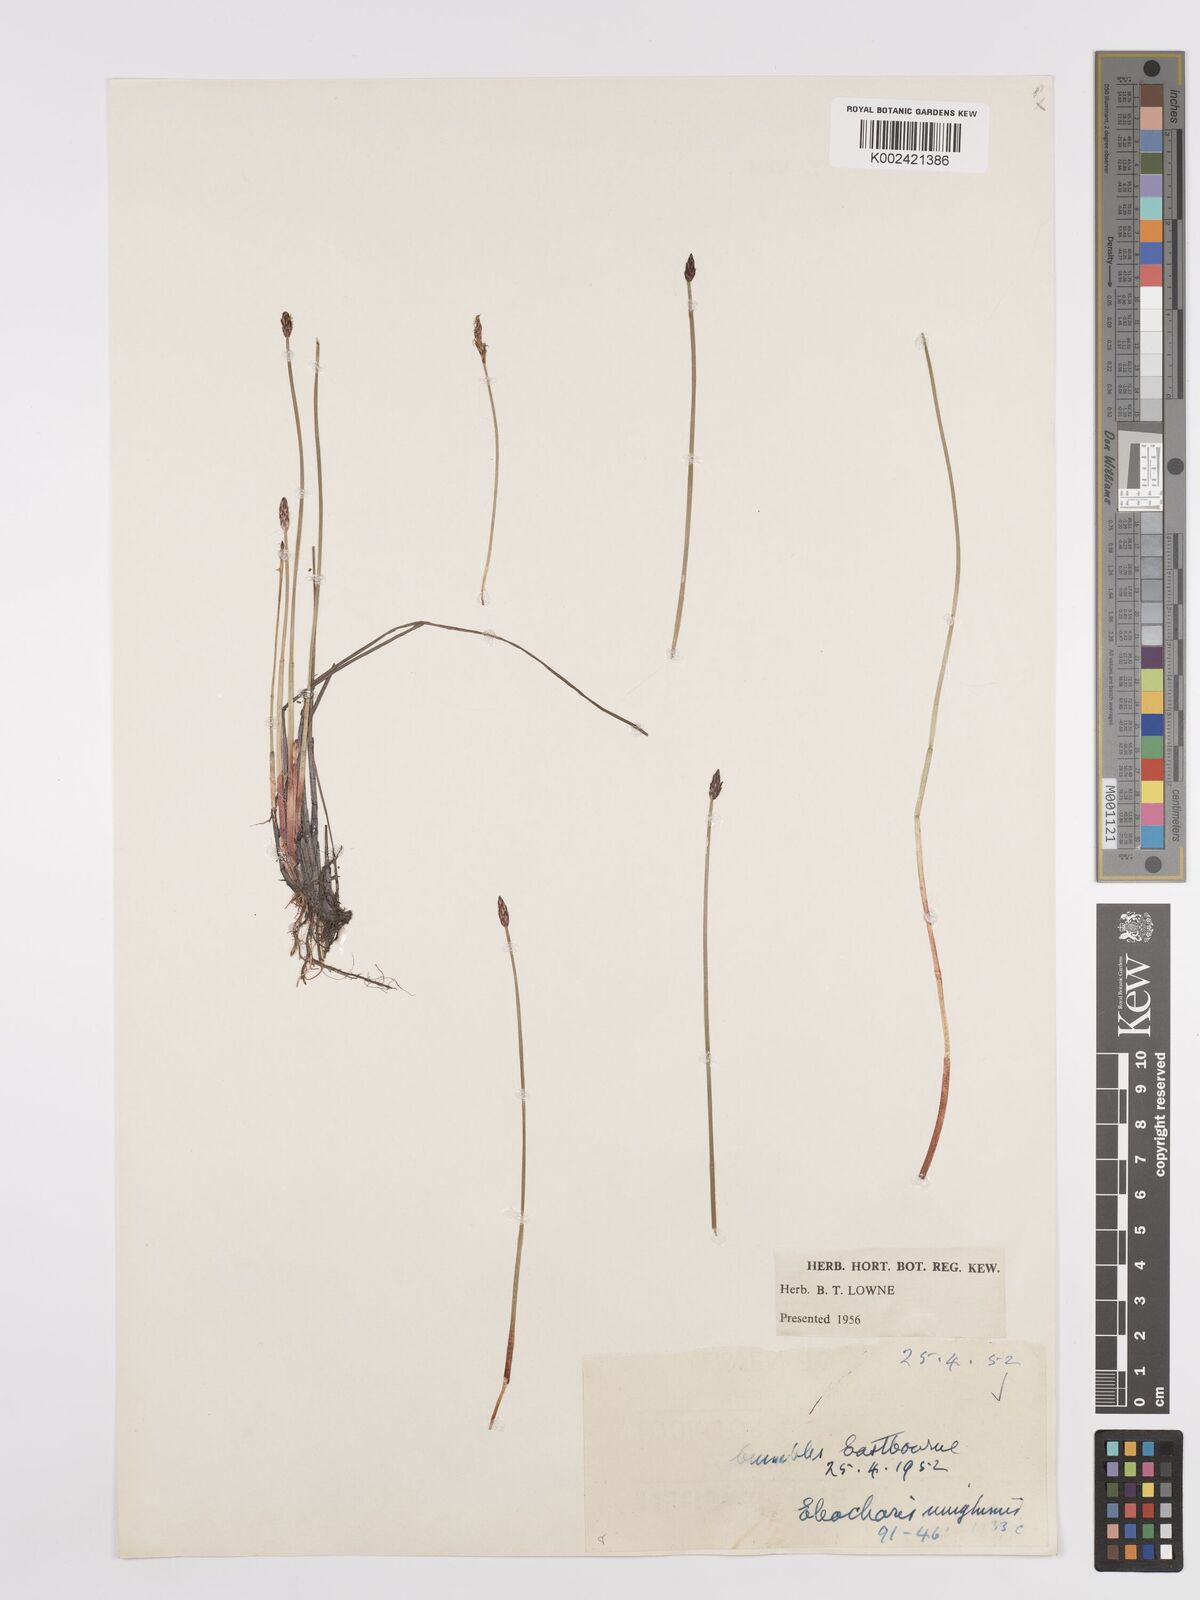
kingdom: Plantae
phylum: Tracheophyta
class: Liliopsida
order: Poales
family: Cyperaceae
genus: Eleocharis
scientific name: Eleocharis uniglumis
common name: Slender spike-rush
